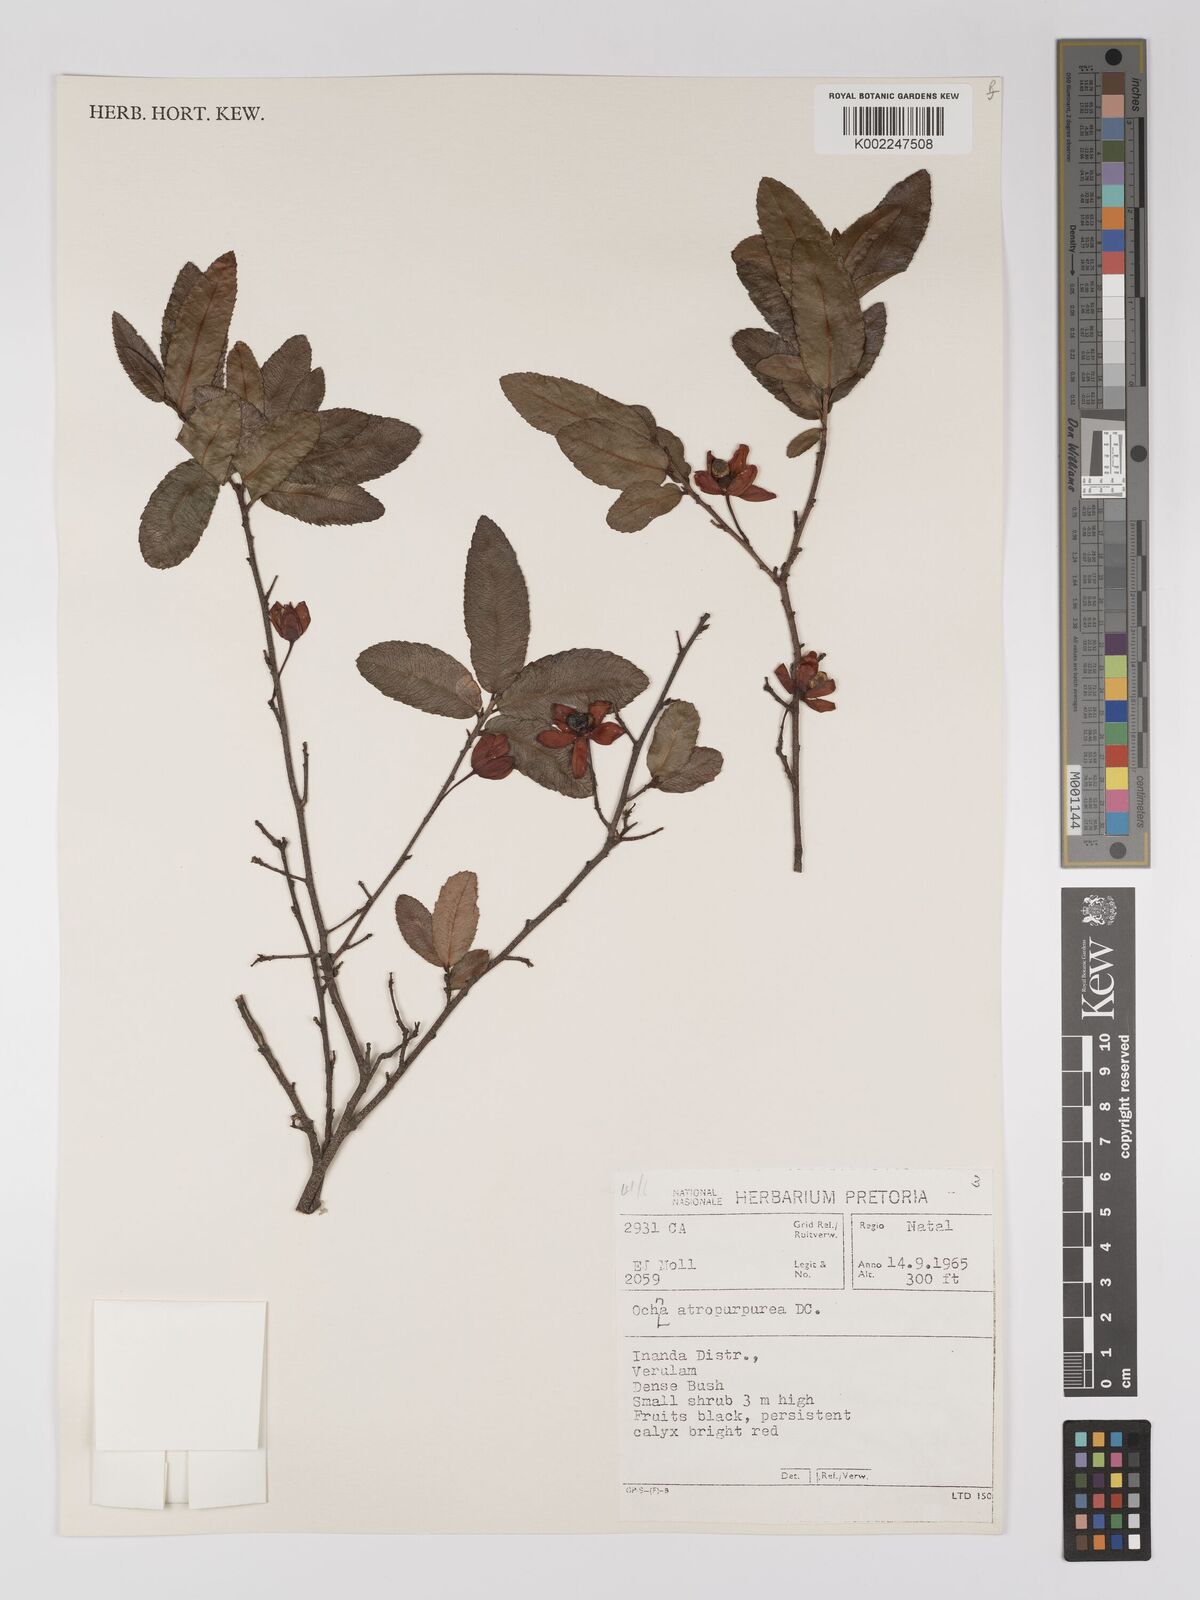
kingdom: Plantae
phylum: Tracheophyta
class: Magnoliopsida
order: Malpighiales
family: Ochnaceae
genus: Ochna
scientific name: Ochna serrulata
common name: Mickey mouse plant
